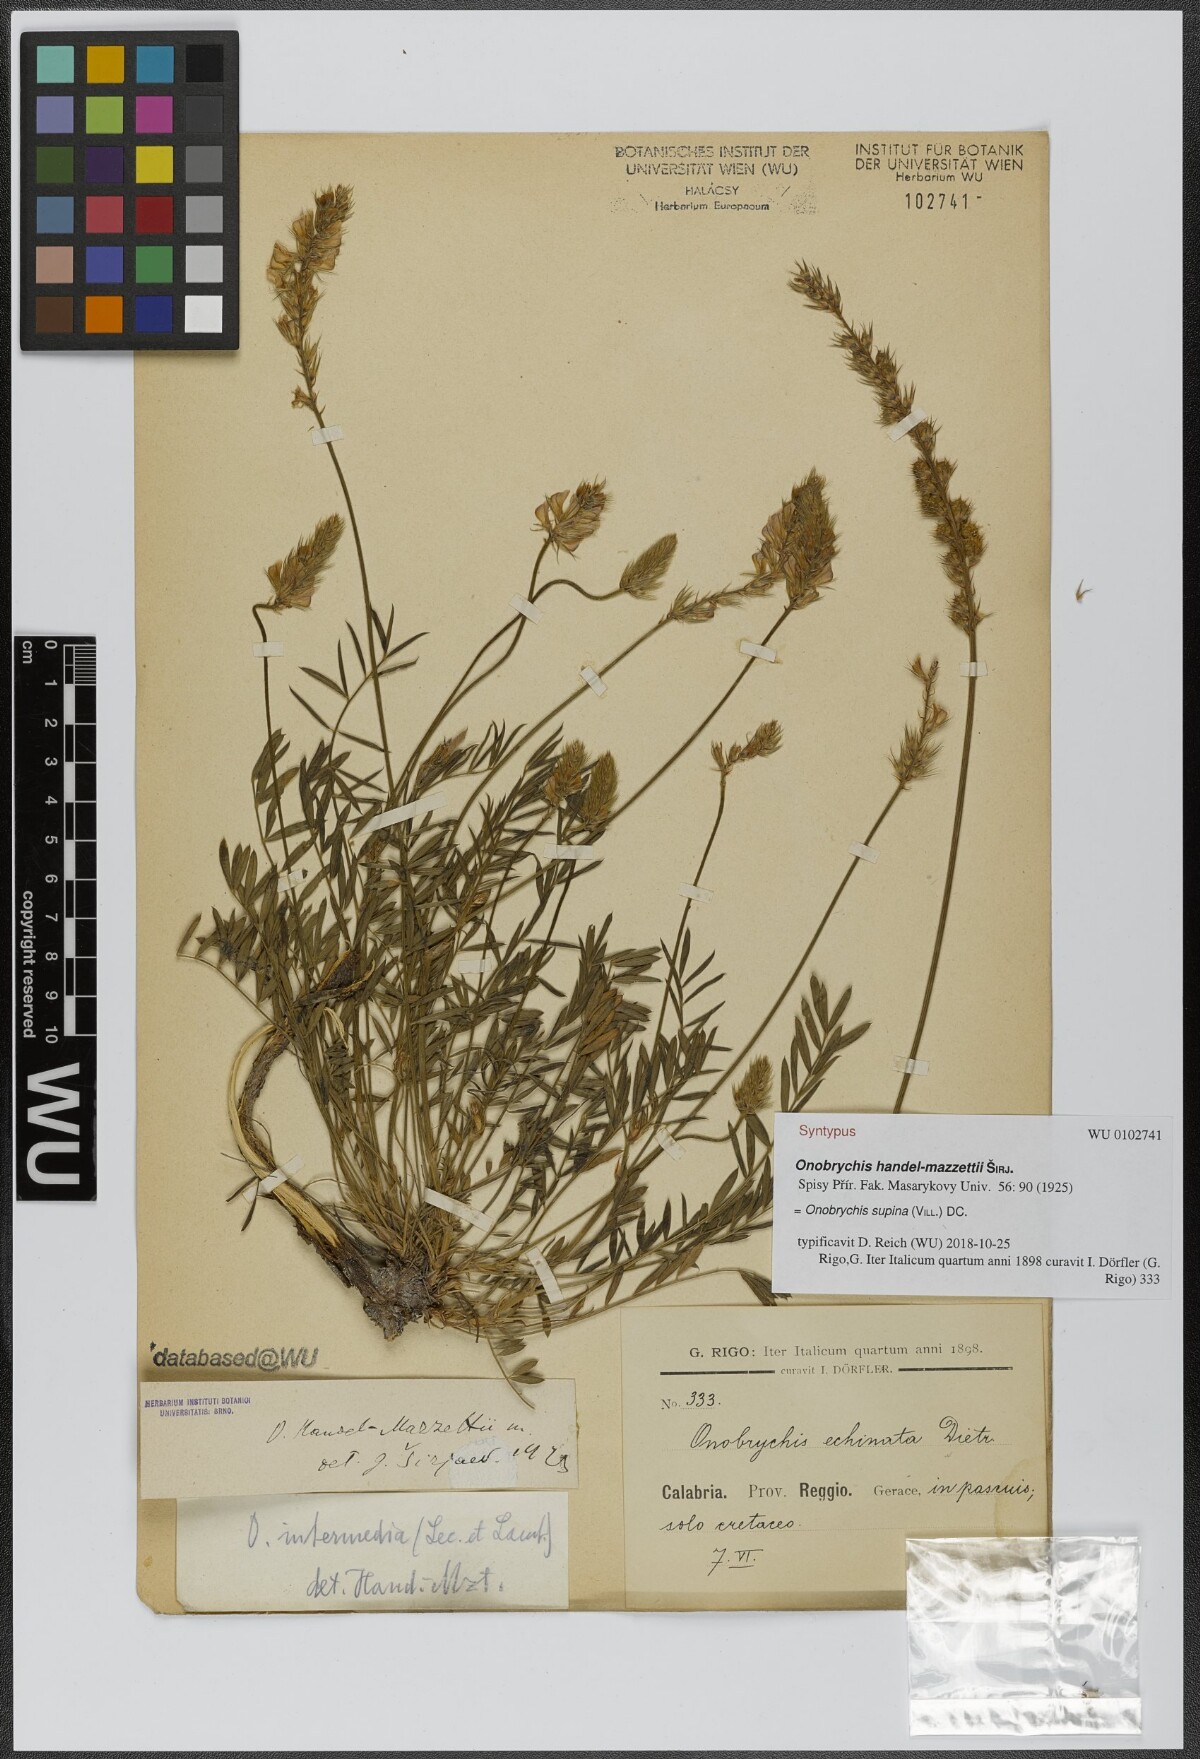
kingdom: Plantae
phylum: Tracheophyta
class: Magnoliopsida
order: Fabales
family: Fabaceae
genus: Onobrychis
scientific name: Onobrychis supina
